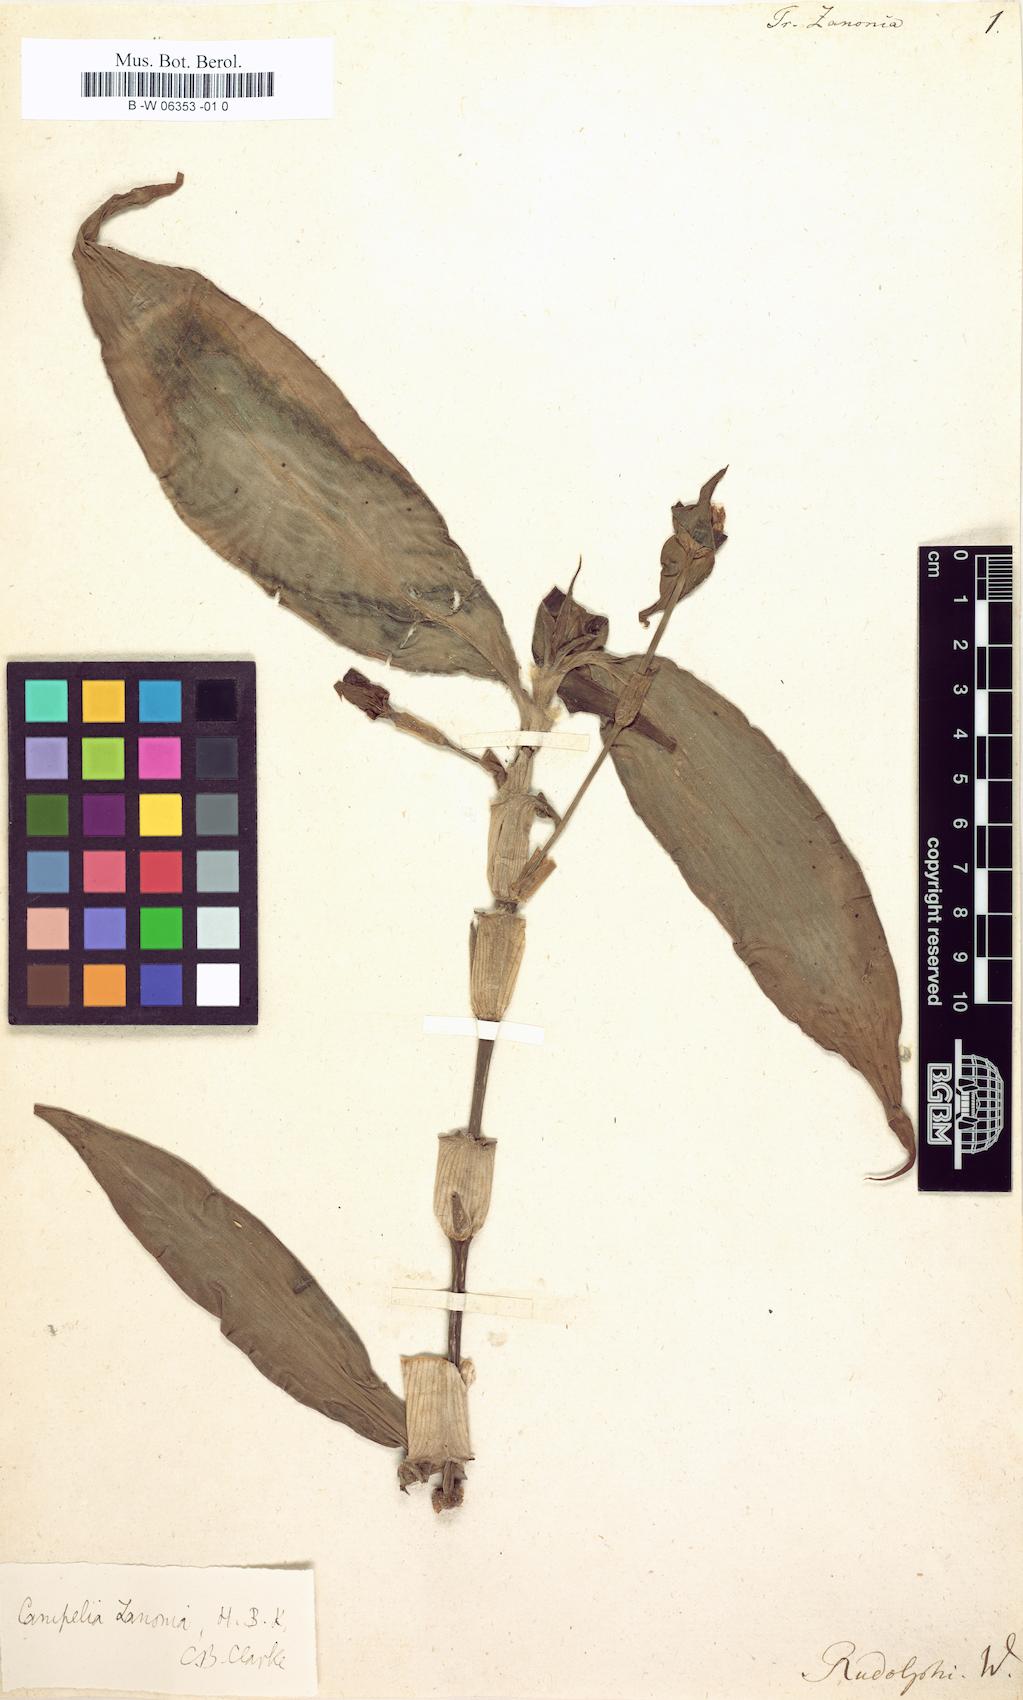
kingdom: Plantae
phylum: Tracheophyta
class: Liliopsida
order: Commelinales
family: Commelinaceae
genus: Tradescantia
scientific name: Tradescantia zanonia
